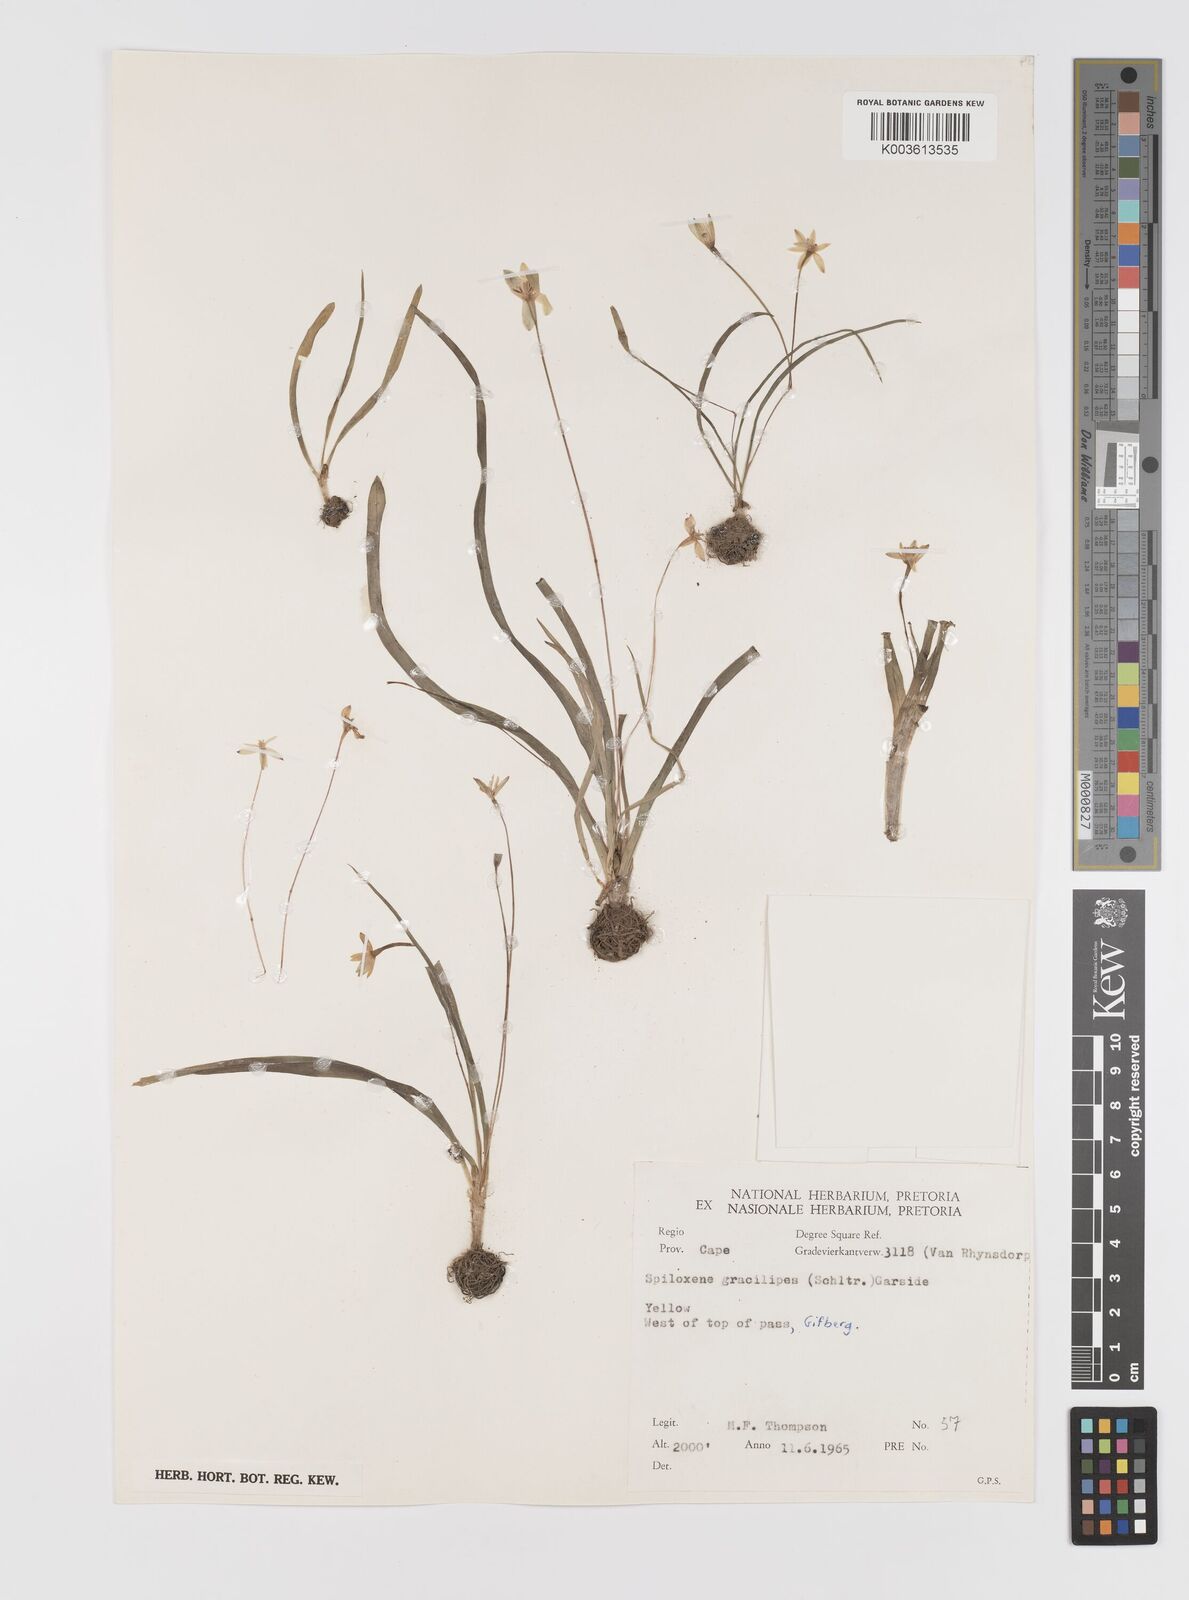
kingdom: Plantae
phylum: Tracheophyta
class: Liliopsida
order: Asparagales
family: Hypoxidaceae
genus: Pauridia
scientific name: Pauridia gracilipes
